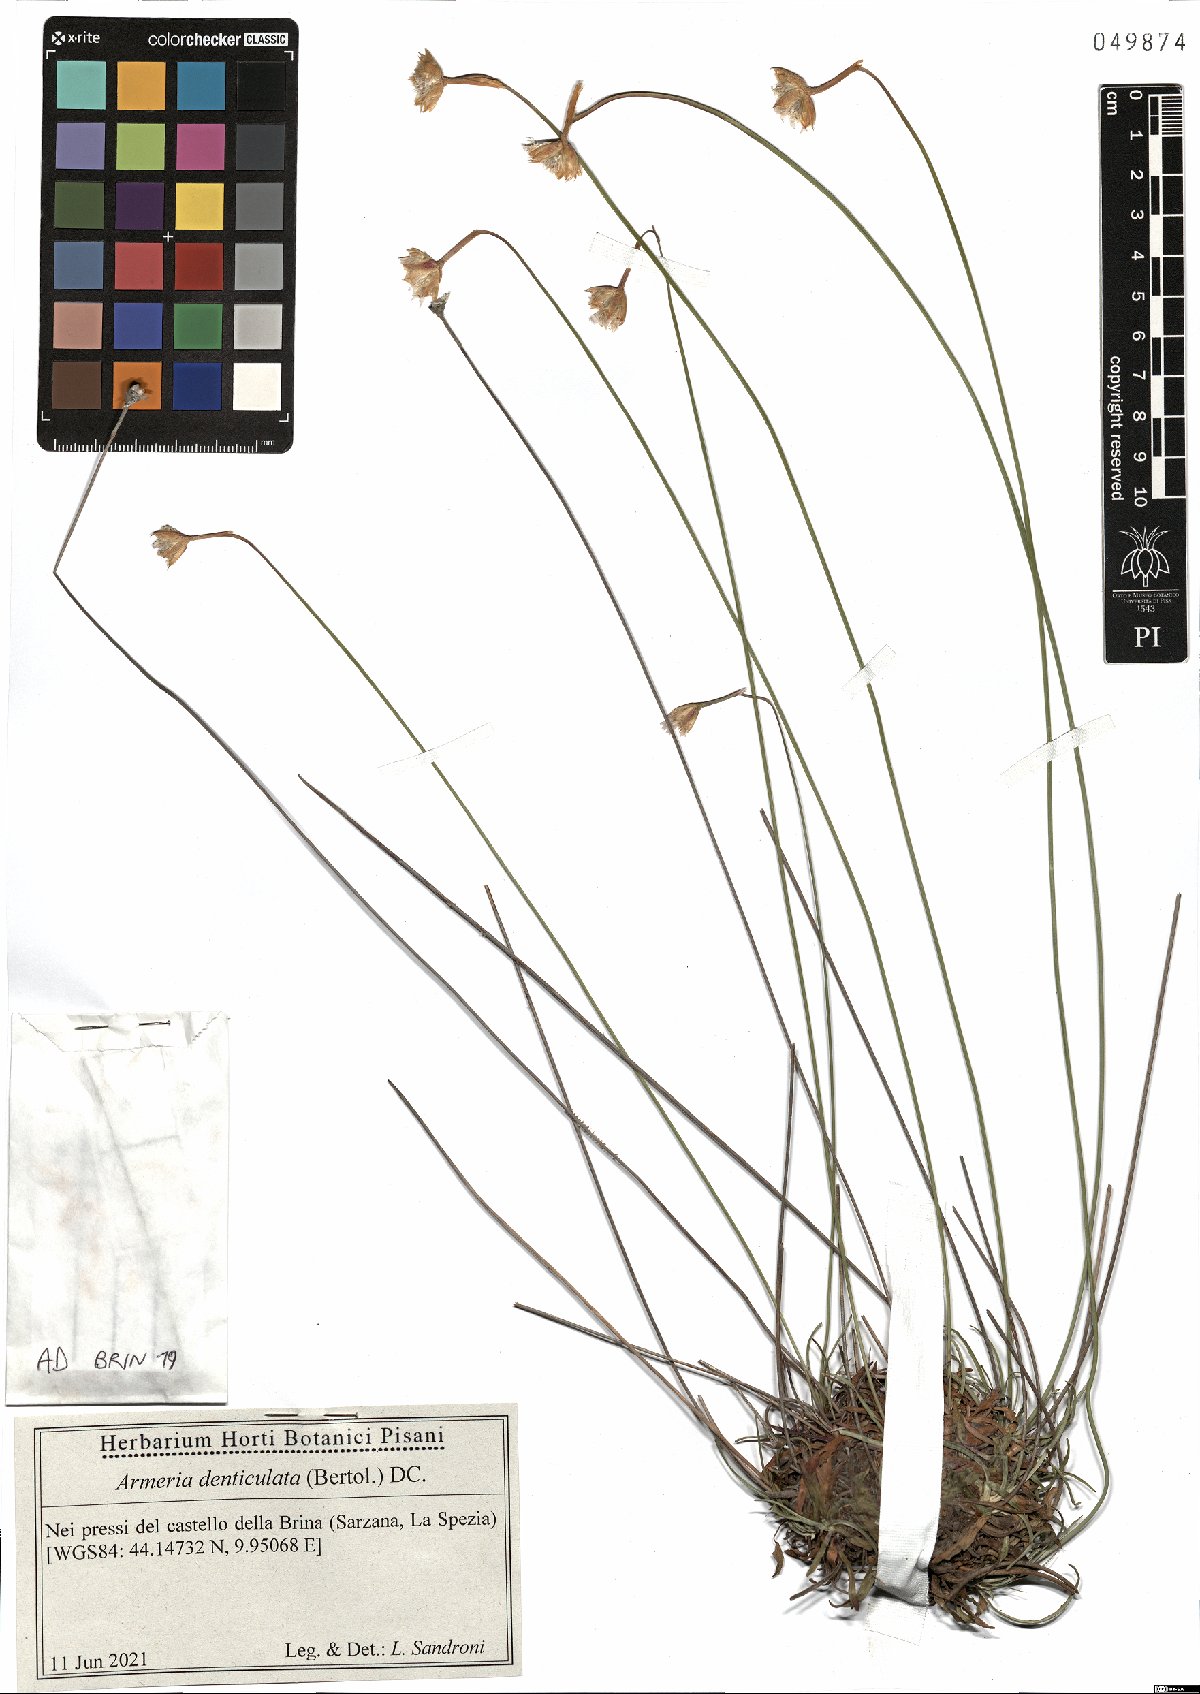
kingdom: Plantae
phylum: Tracheophyta
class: Magnoliopsida
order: Caryophyllales
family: Plumbaginaceae
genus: Armeria
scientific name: Armeria denticulata
